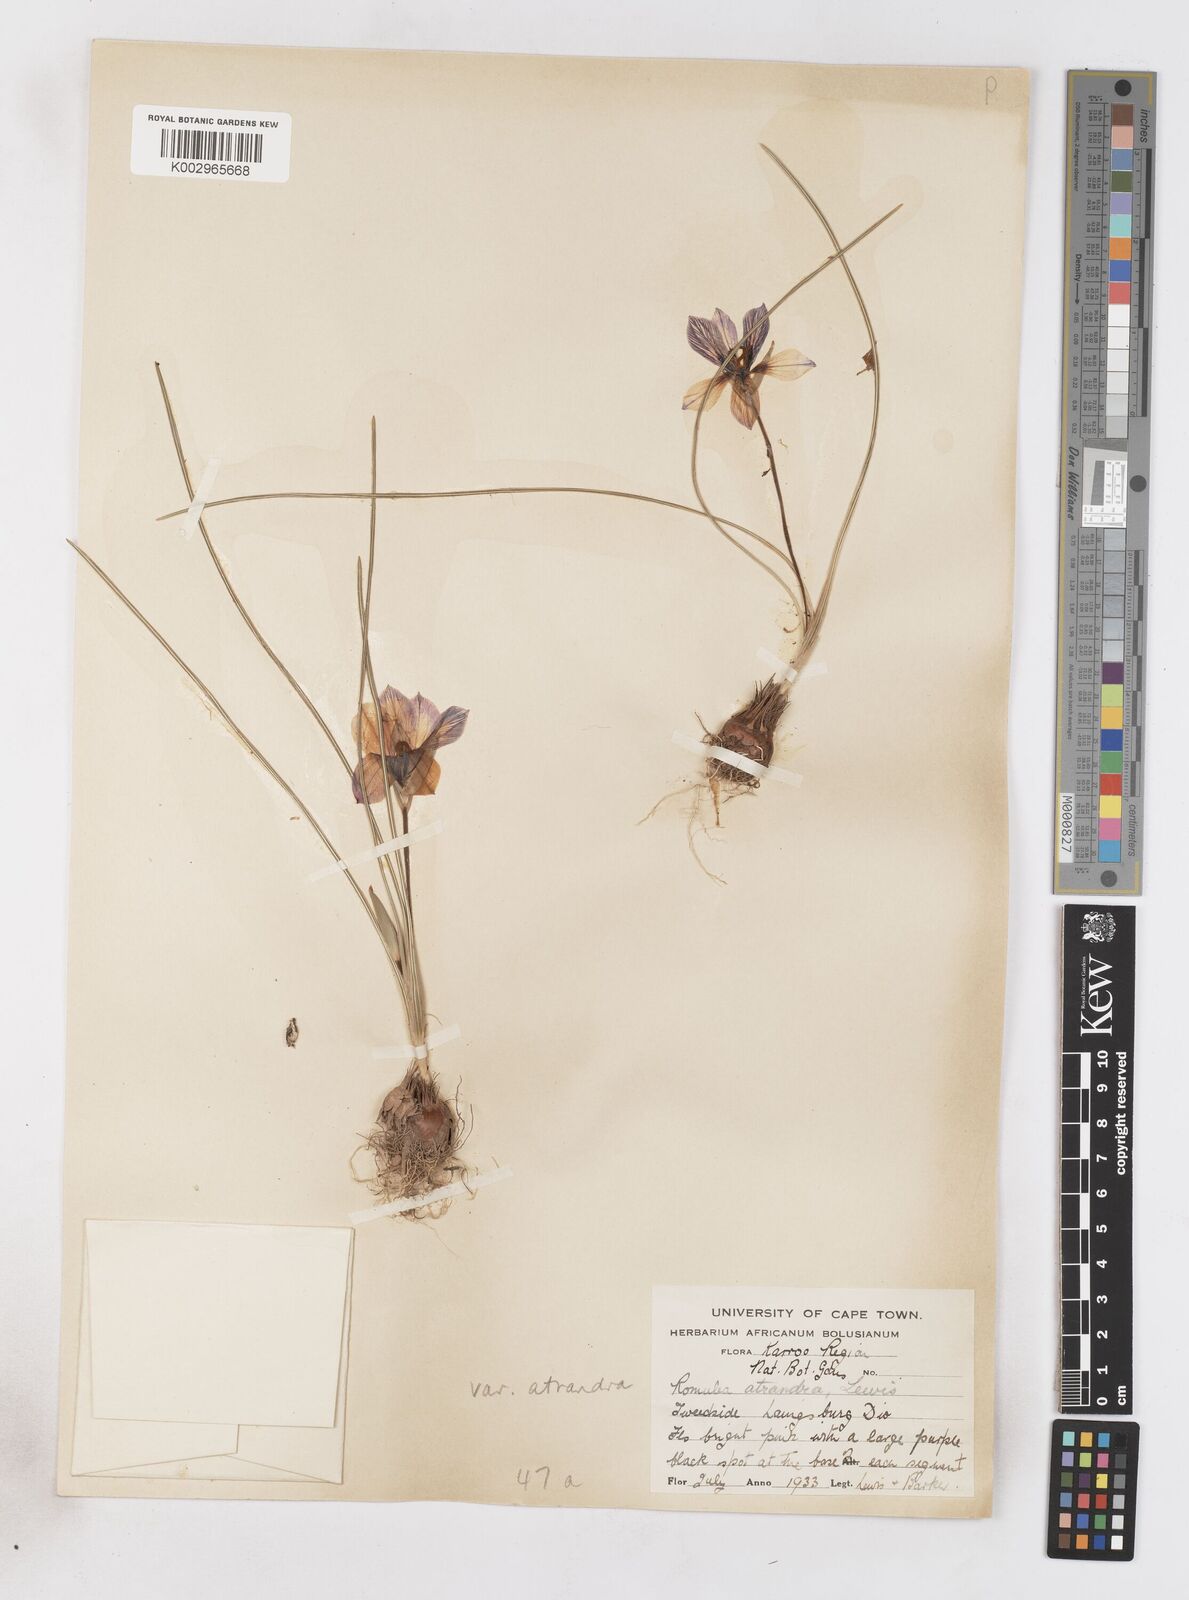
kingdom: Plantae
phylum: Tracheophyta
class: Liliopsida
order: Asparagales
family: Iridaceae
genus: Romulea
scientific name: Romulea atrandra
